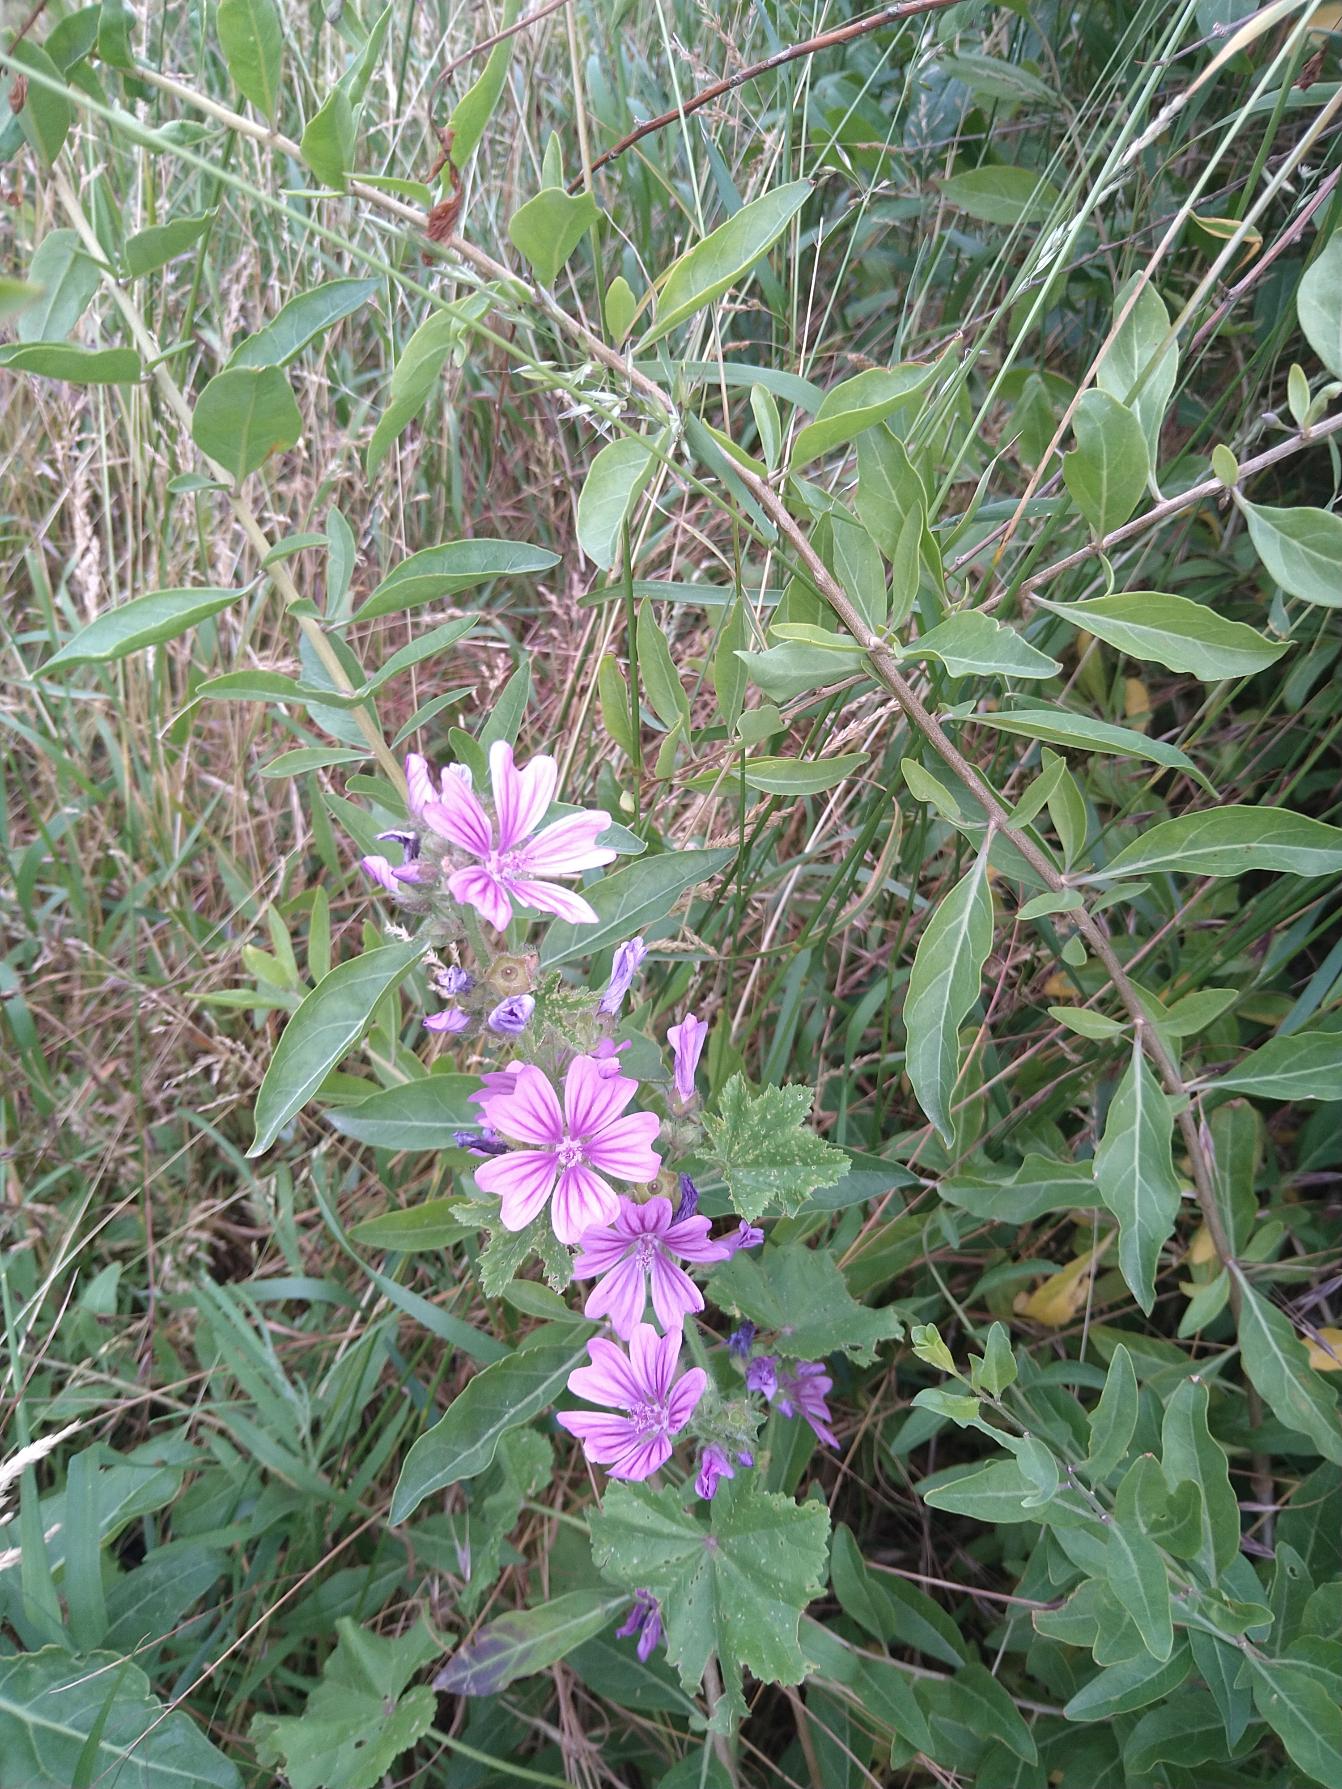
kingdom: Plantae
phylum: Tracheophyta
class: Magnoliopsida
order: Malvales
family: Malvaceae
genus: Malva
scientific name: Malva sylvestris
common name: Almindelig katost
